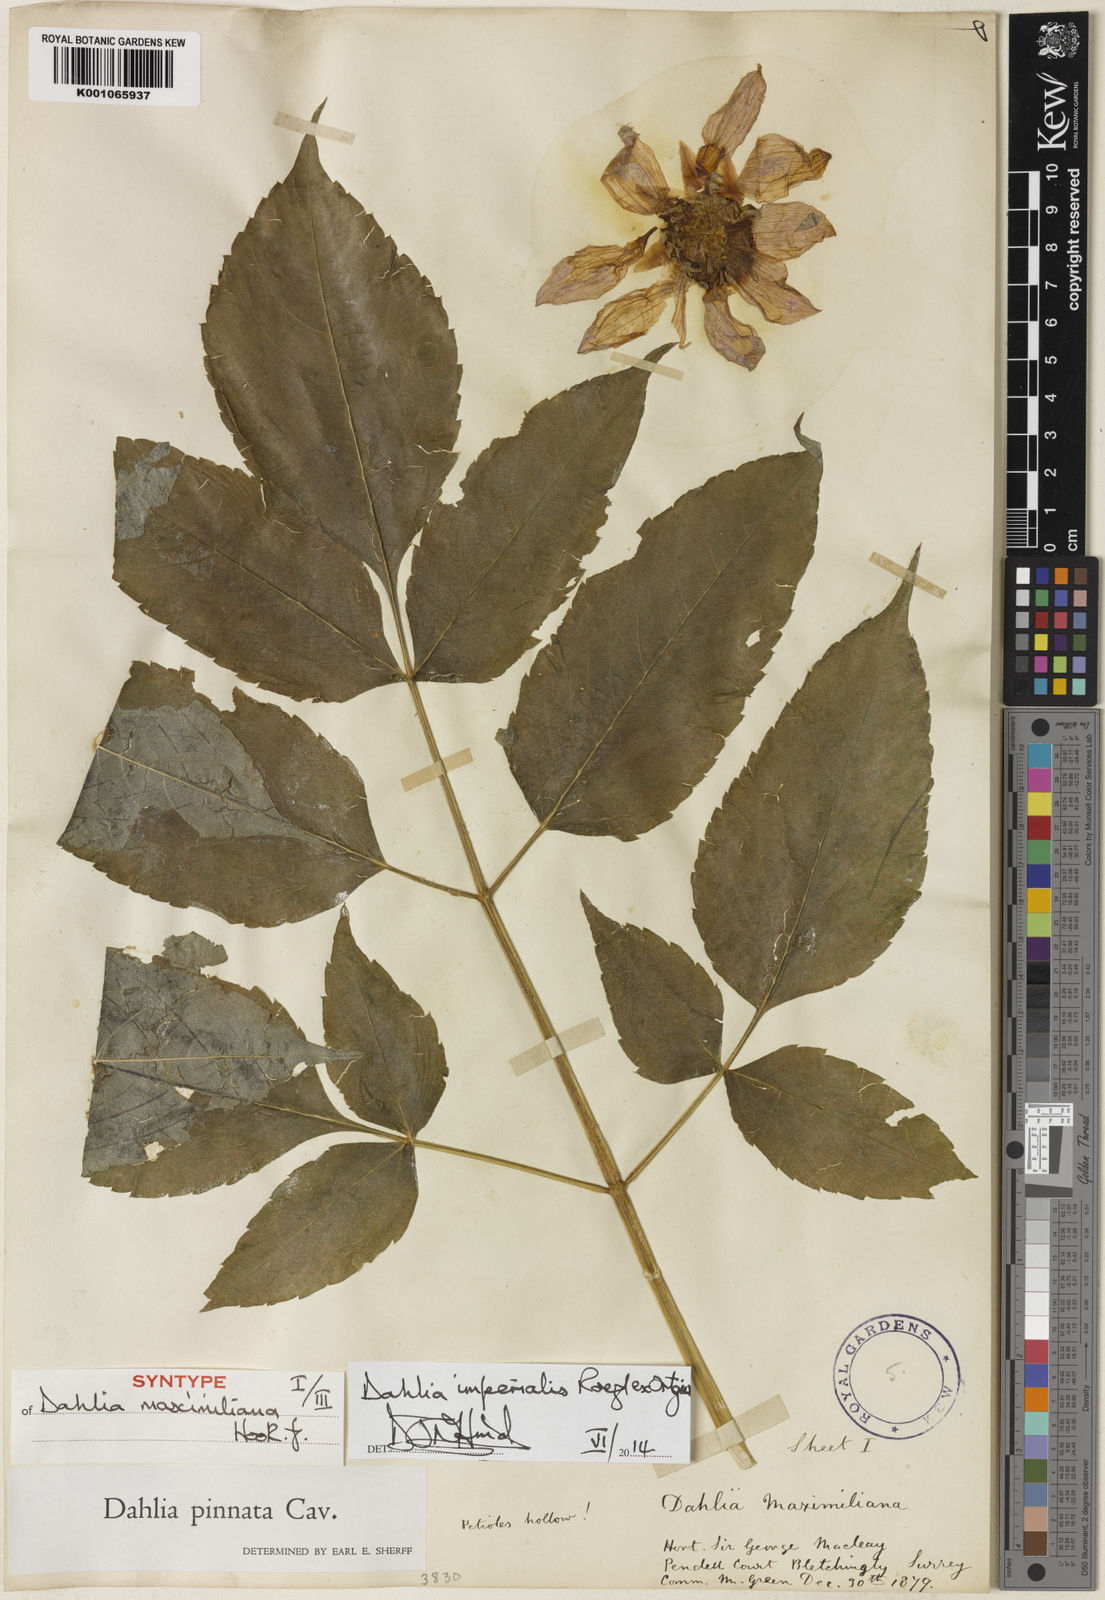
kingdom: Plantae
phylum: Tracheophyta
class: Magnoliopsida
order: Asterales
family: Asteraceae
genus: Dahlia
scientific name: Dahlia pinnata
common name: Dahlia
